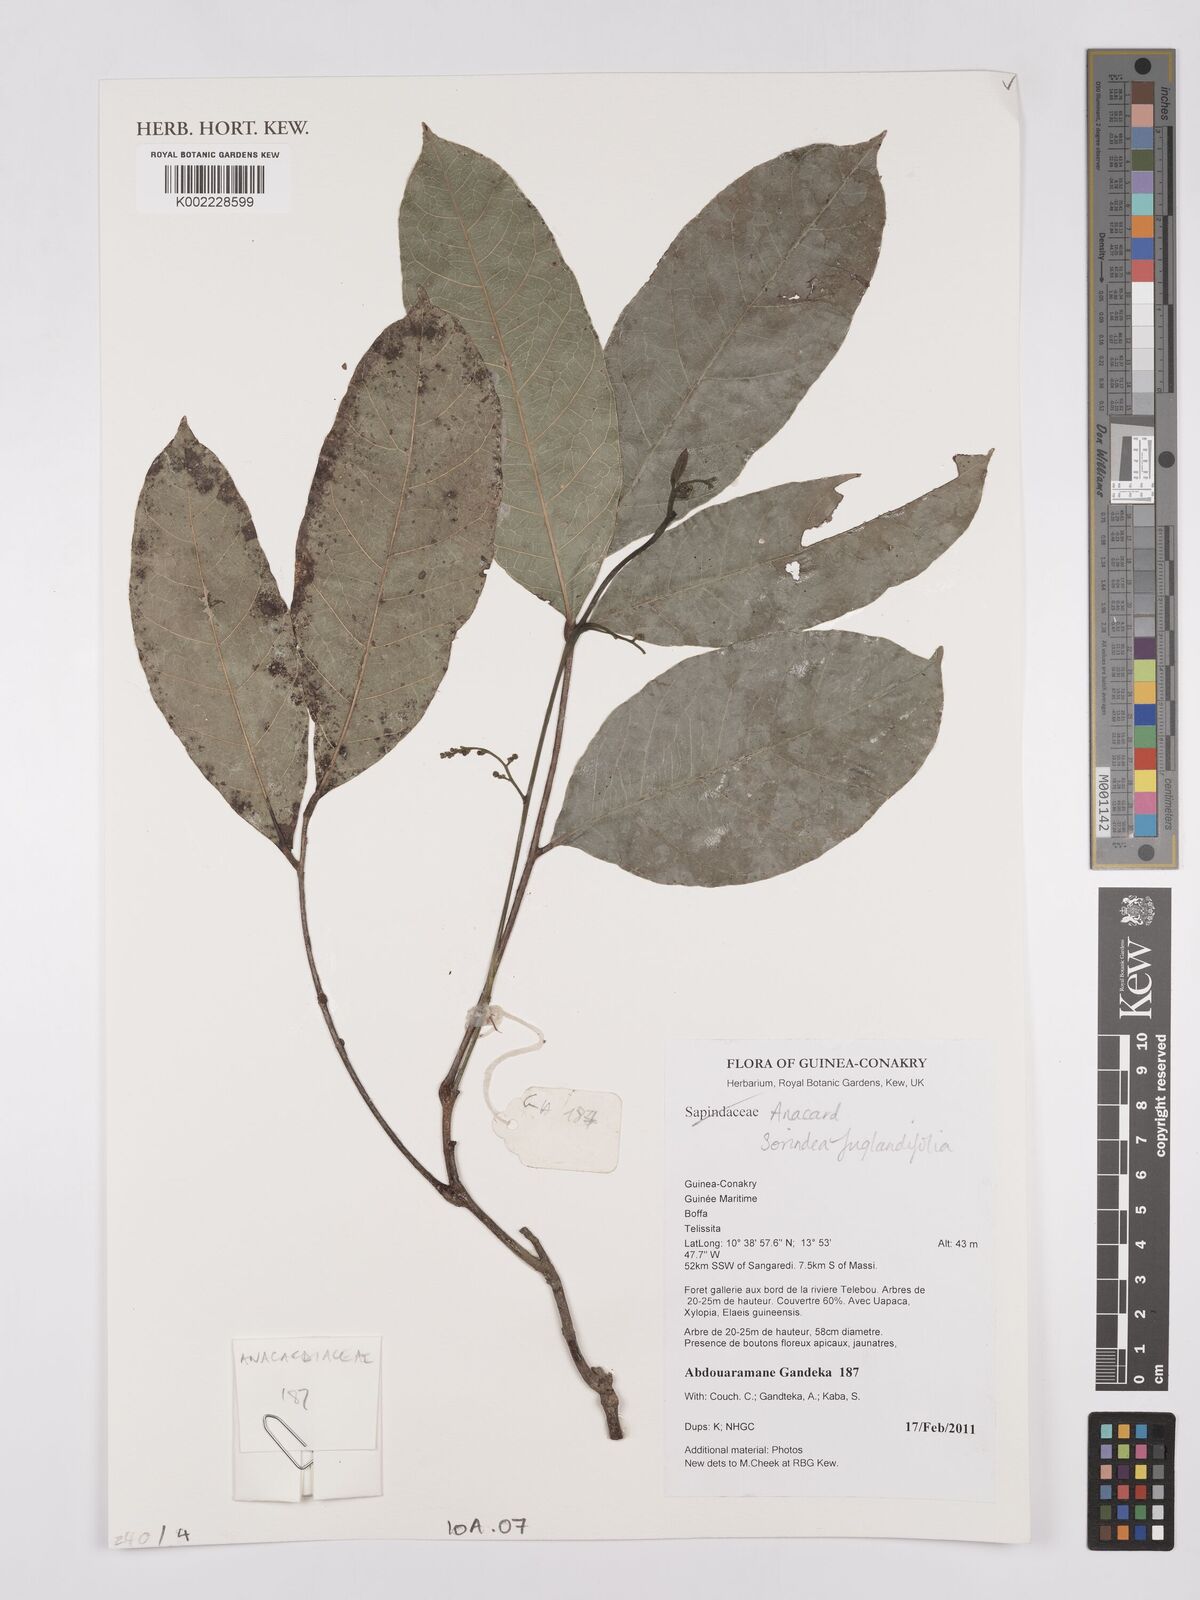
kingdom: Plantae
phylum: Tracheophyta
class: Magnoliopsida
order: Sapindales
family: Anacardiaceae
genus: Sorindeia
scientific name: Sorindeia juglandifolia
